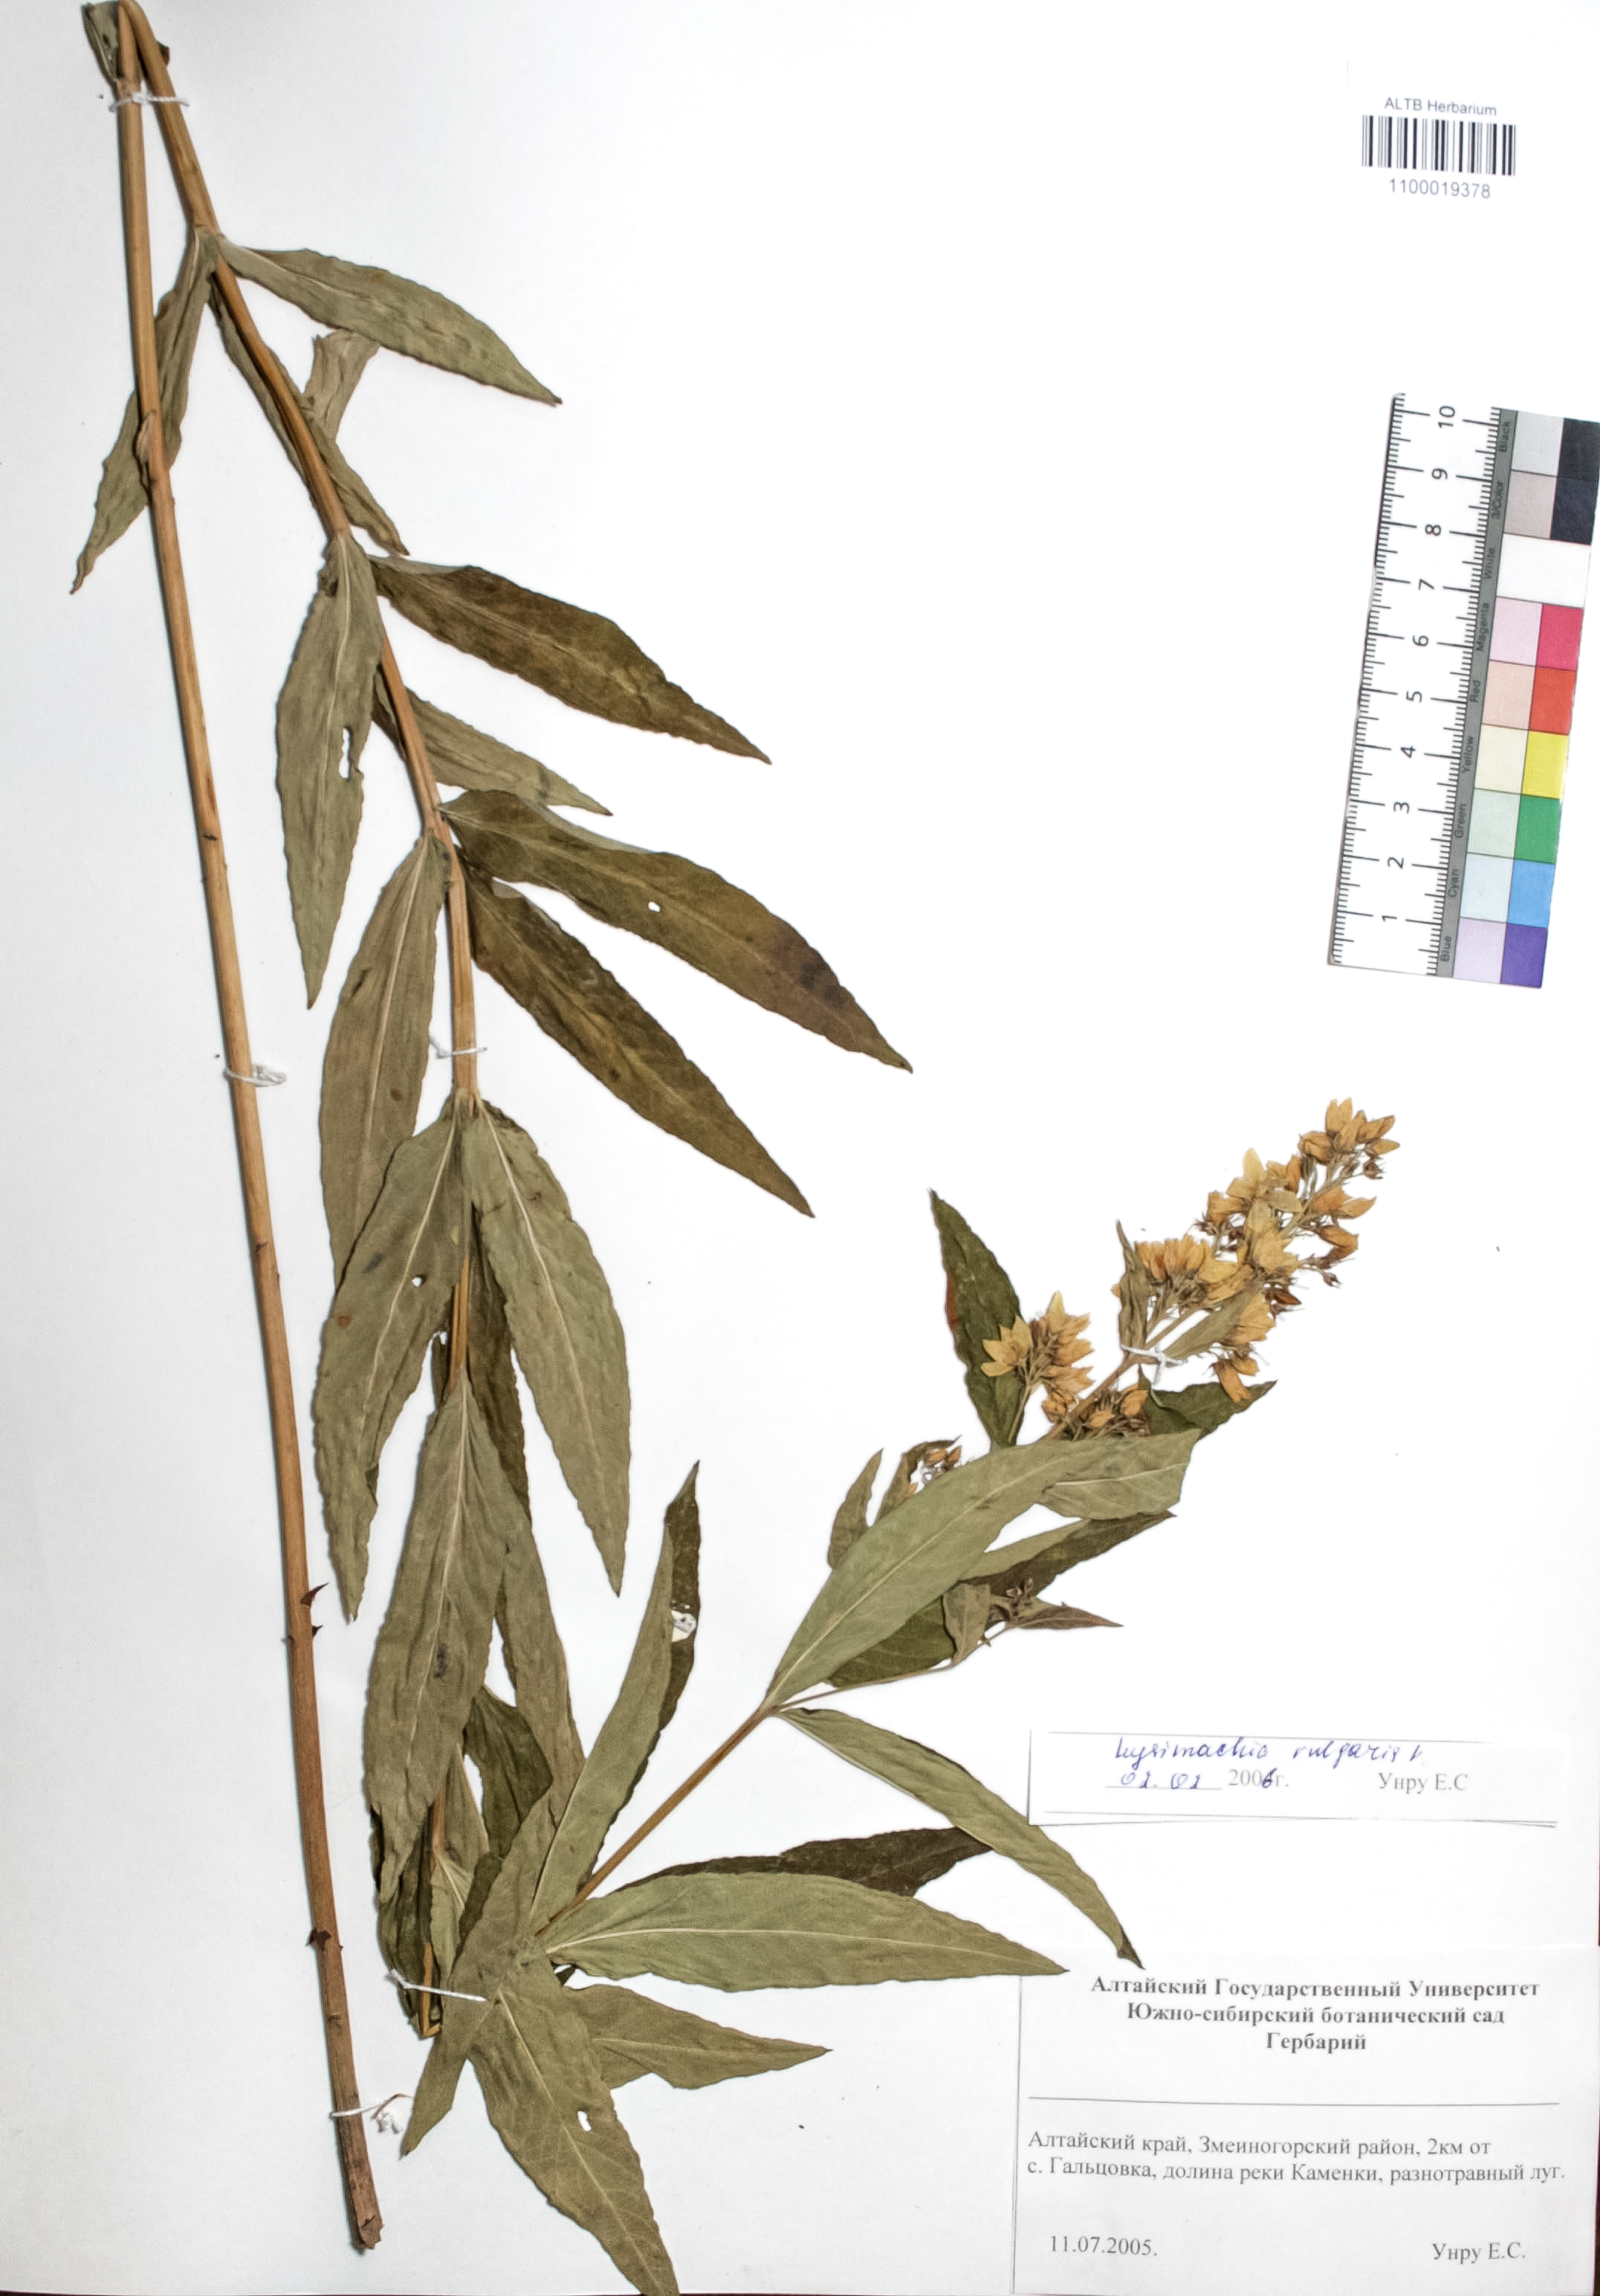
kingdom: Plantae
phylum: Tracheophyta
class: Magnoliopsida
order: Ericales
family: Primulaceae
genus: Lysimachia
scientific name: Lysimachia vulgaris
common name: Yellow loosestrife
